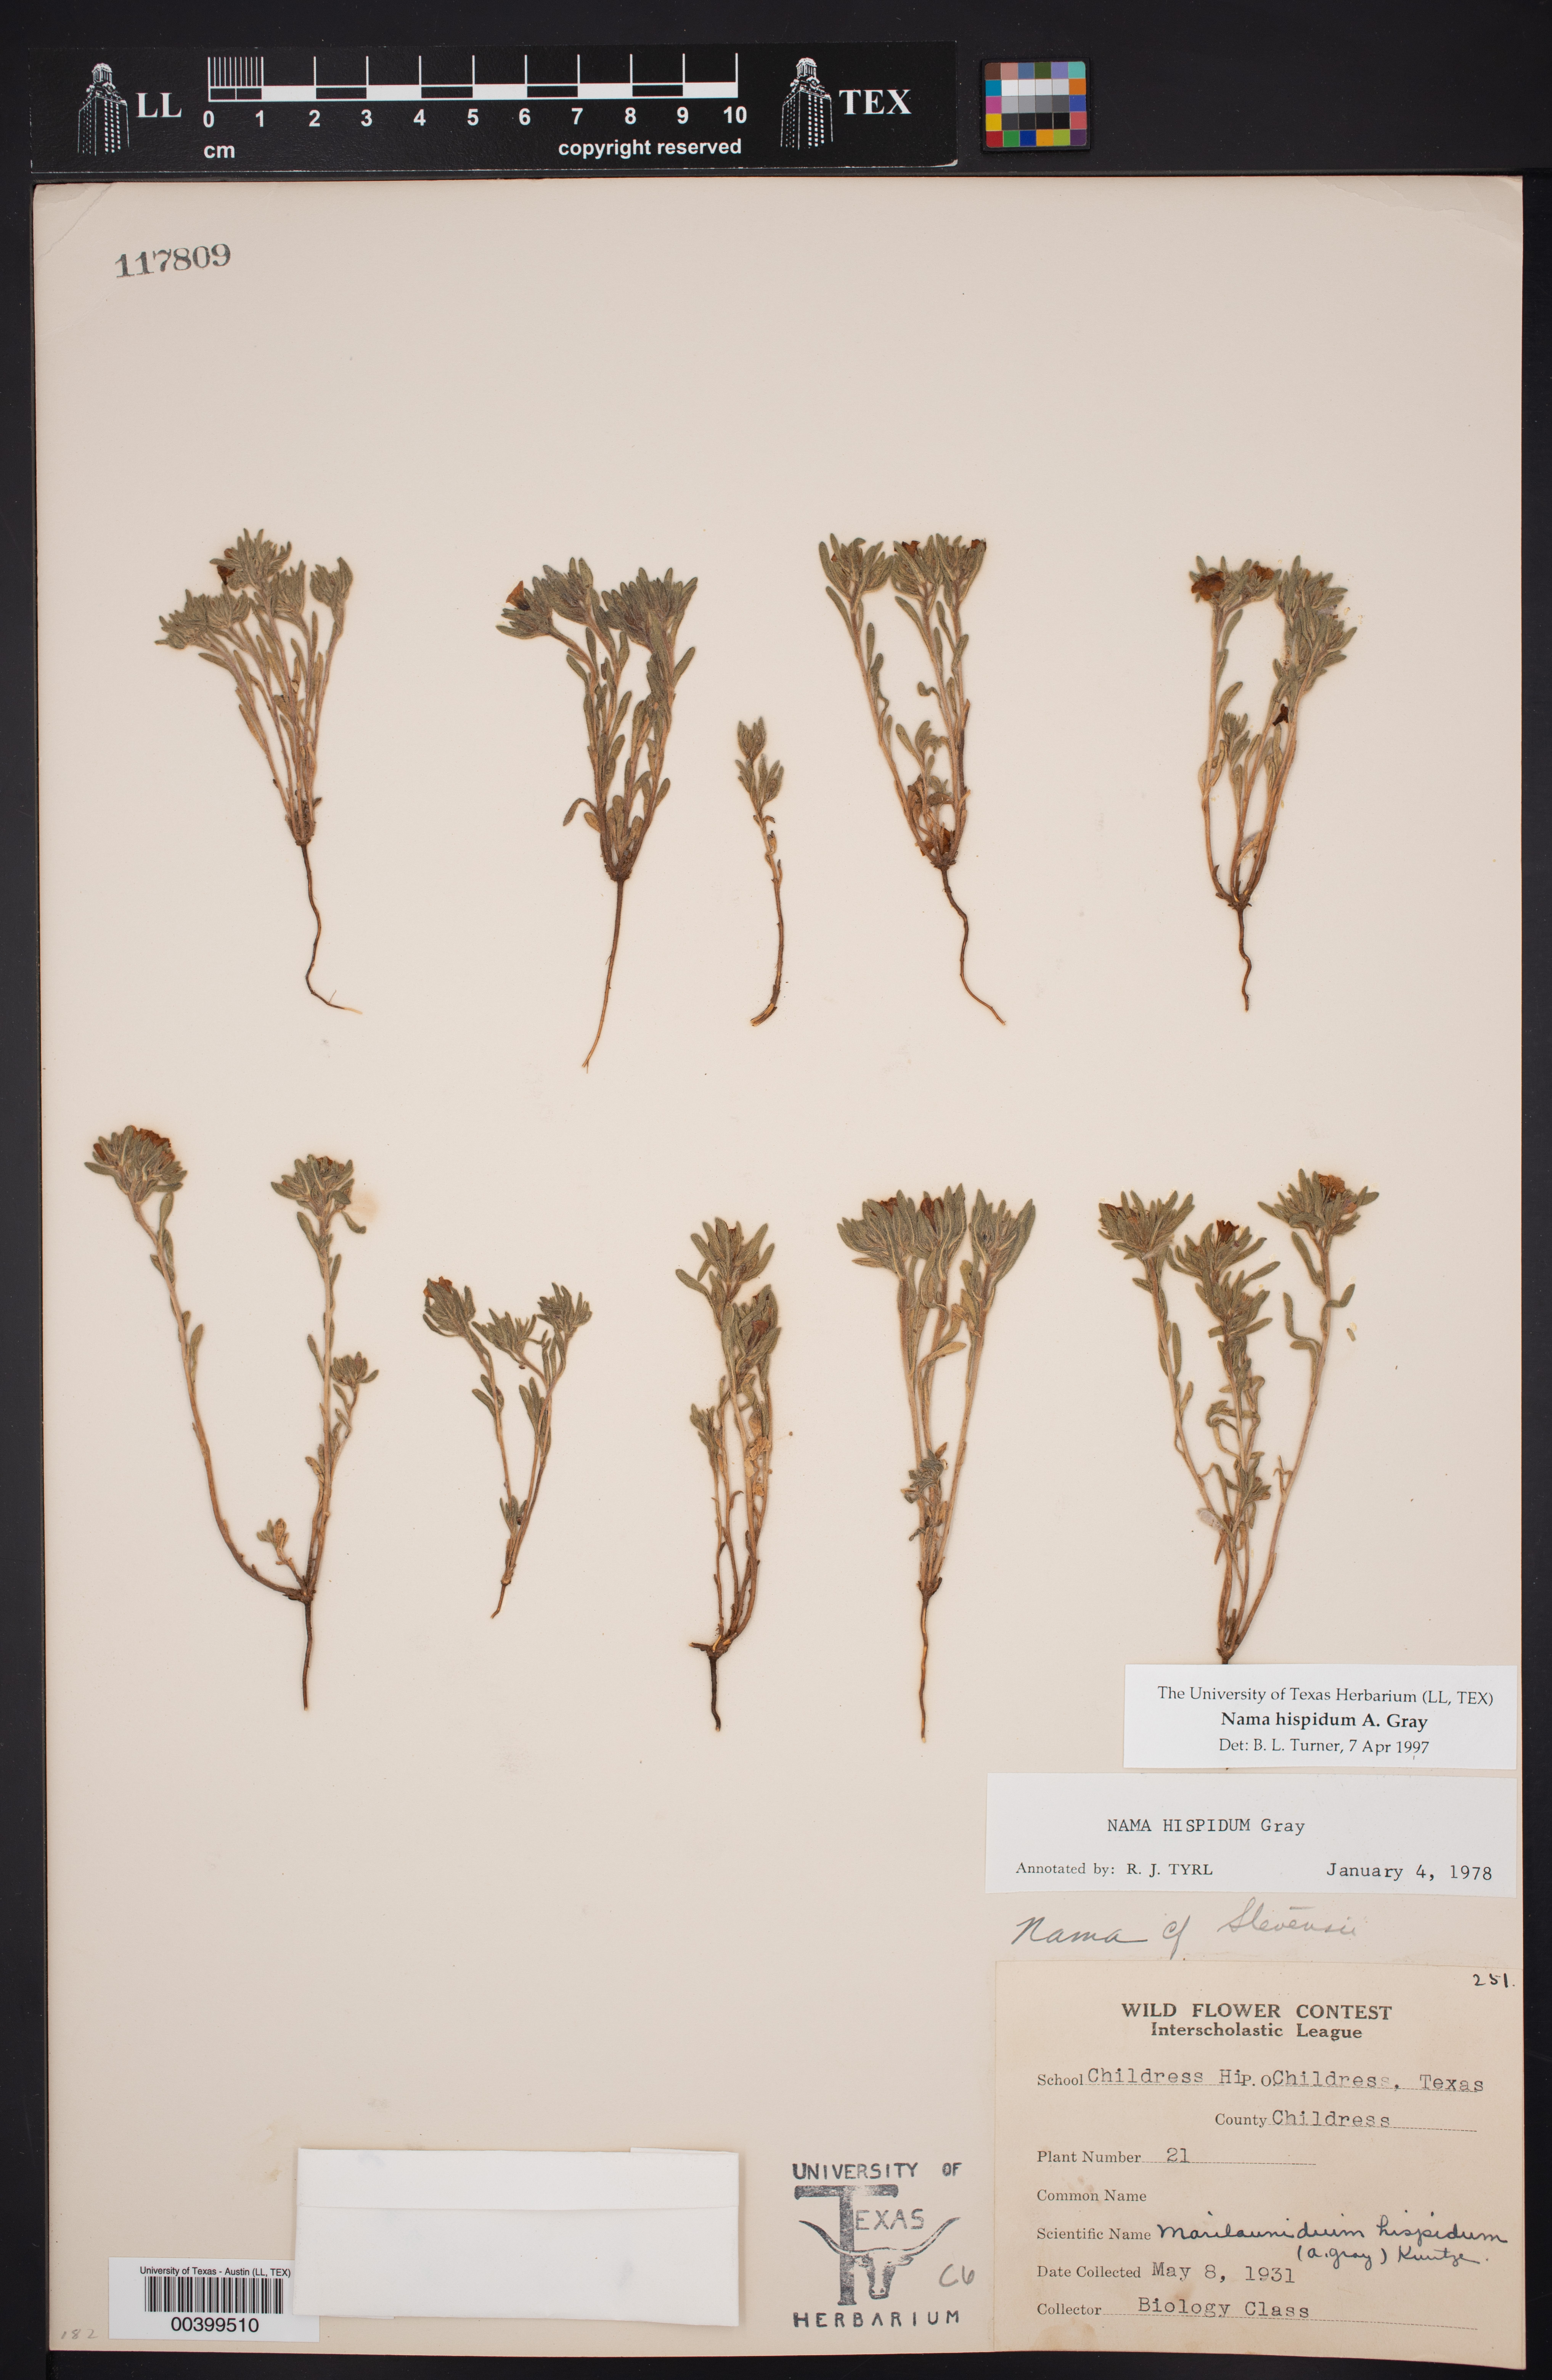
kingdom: Plantae
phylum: Tracheophyta
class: Magnoliopsida
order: Boraginales
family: Namaceae
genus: Nama
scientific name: Nama hispida
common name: Bristly nama
